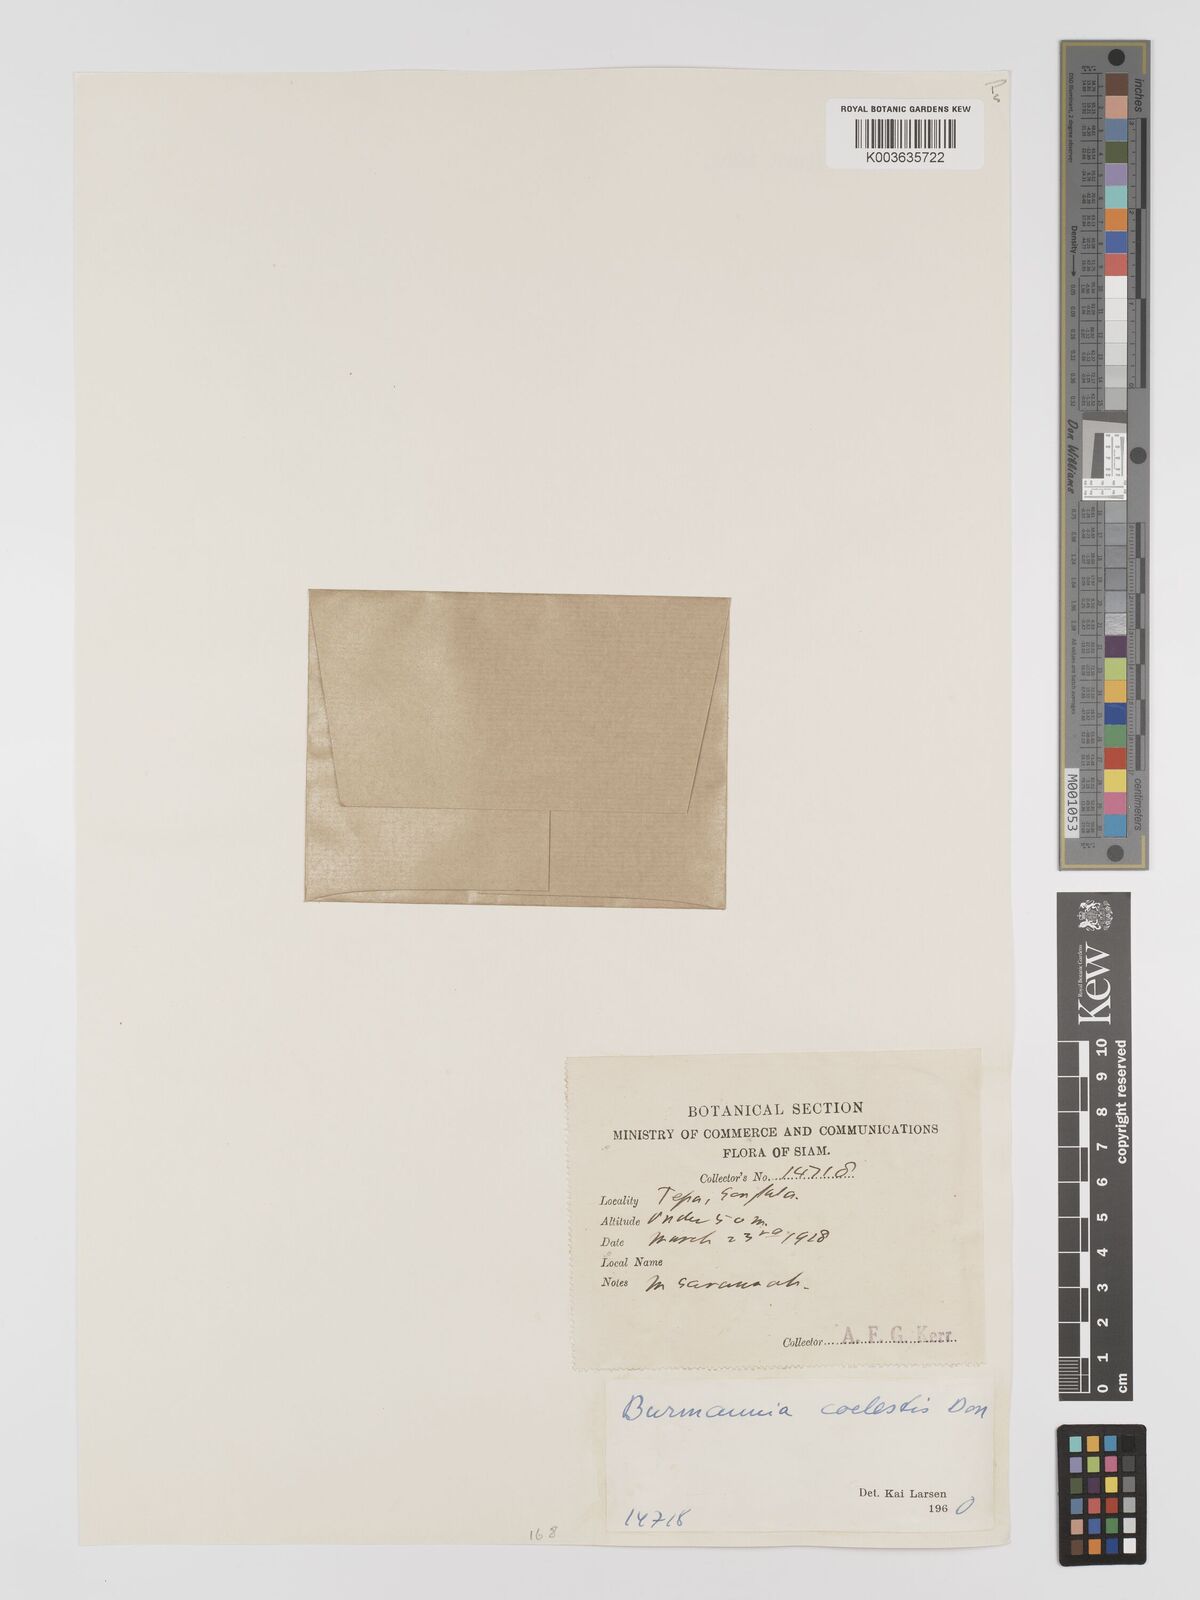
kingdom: Plantae
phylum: Tracheophyta
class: Liliopsida
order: Dioscoreales
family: Burmanniaceae
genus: Burmannia
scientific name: Burmannia coelestis
